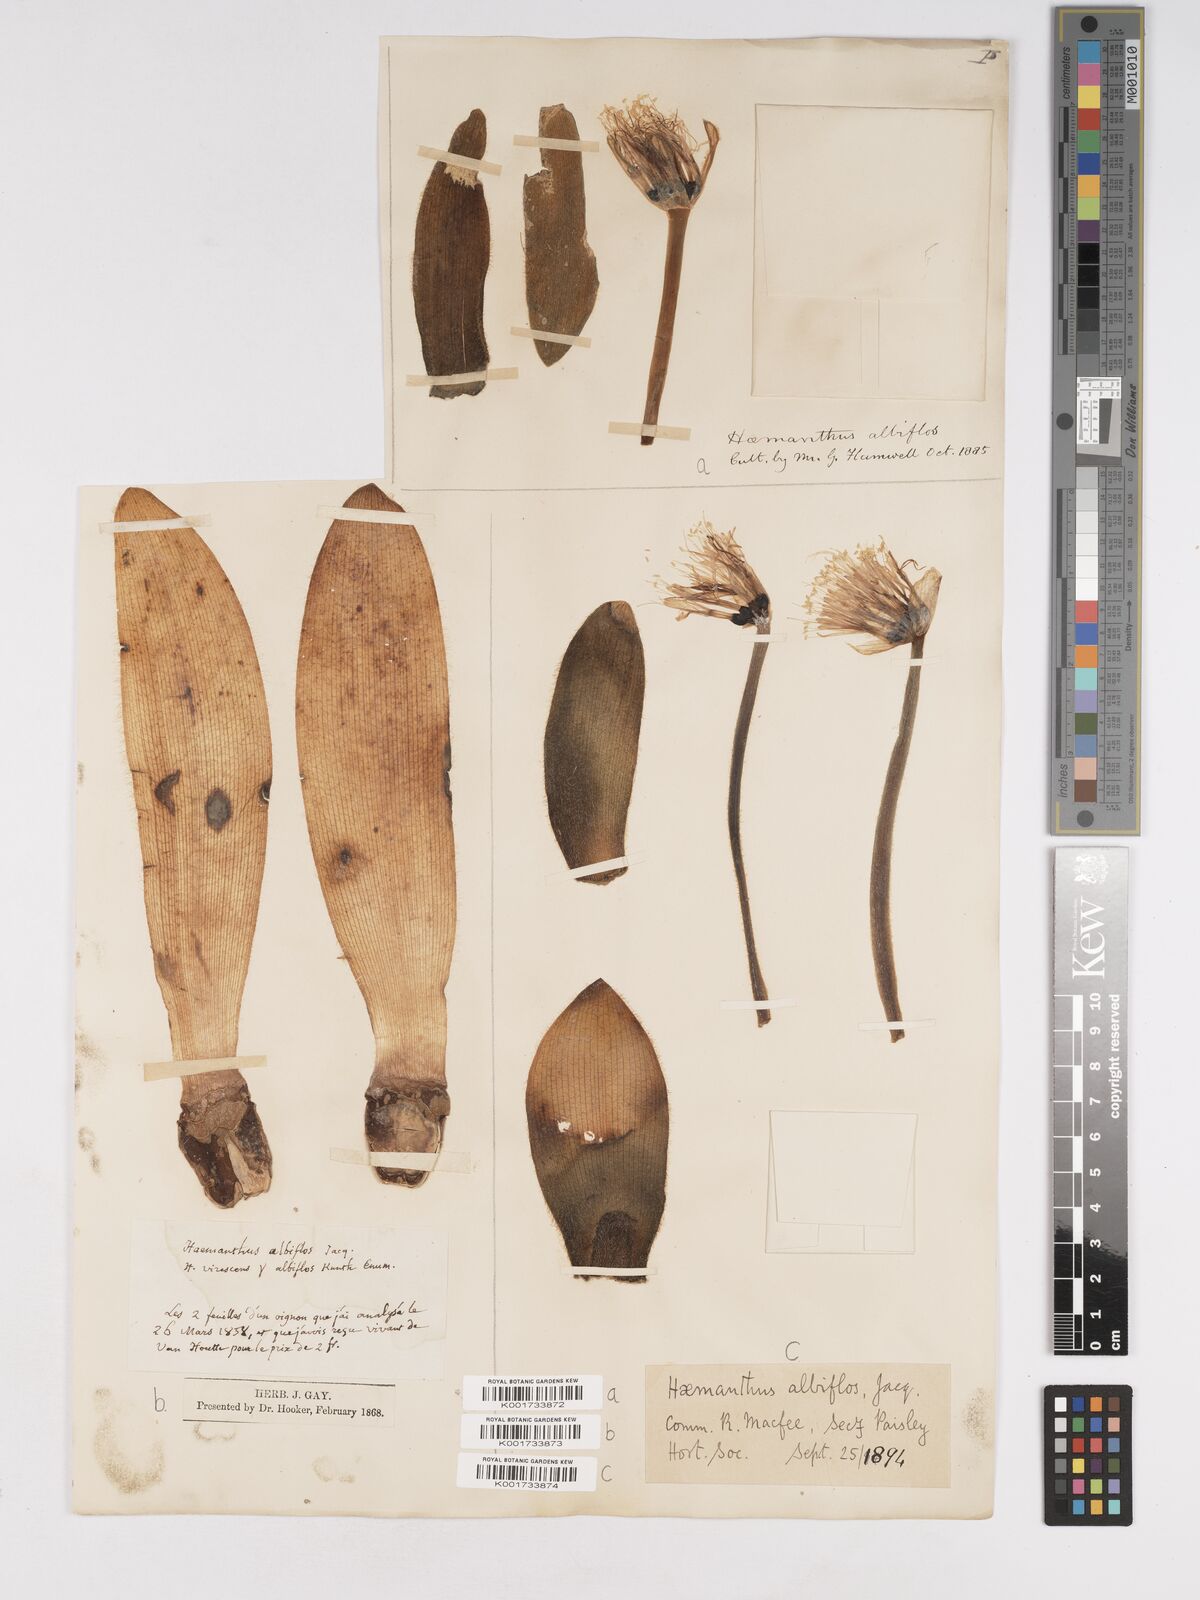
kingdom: Plantae
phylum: Tracheophyta
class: Liliopsida
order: Asparagales
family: Amaryllidaceae
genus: Haemanthus
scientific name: Haemanthus albiflos
